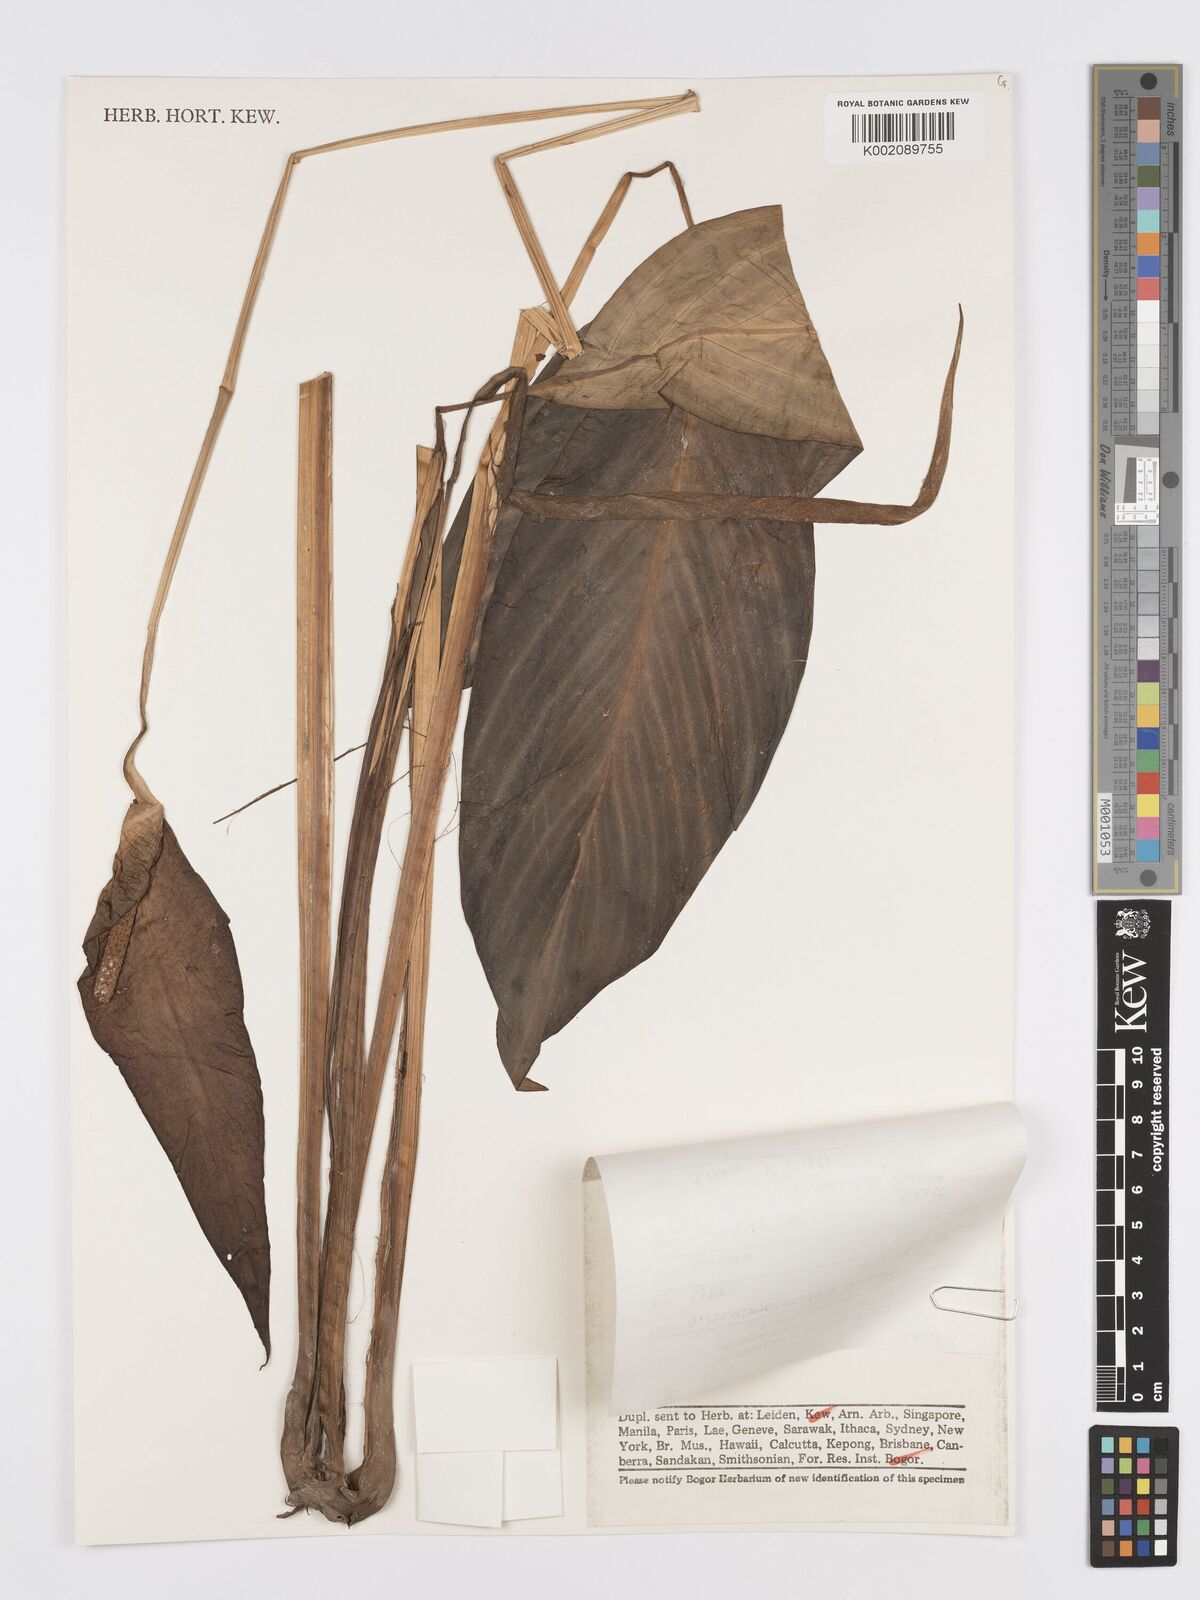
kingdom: Plantae
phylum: Tracheophyta
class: Liliopsida
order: Alismatales
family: Araceae
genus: Spathiphyllum
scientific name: Spathiphyllum commutatum
